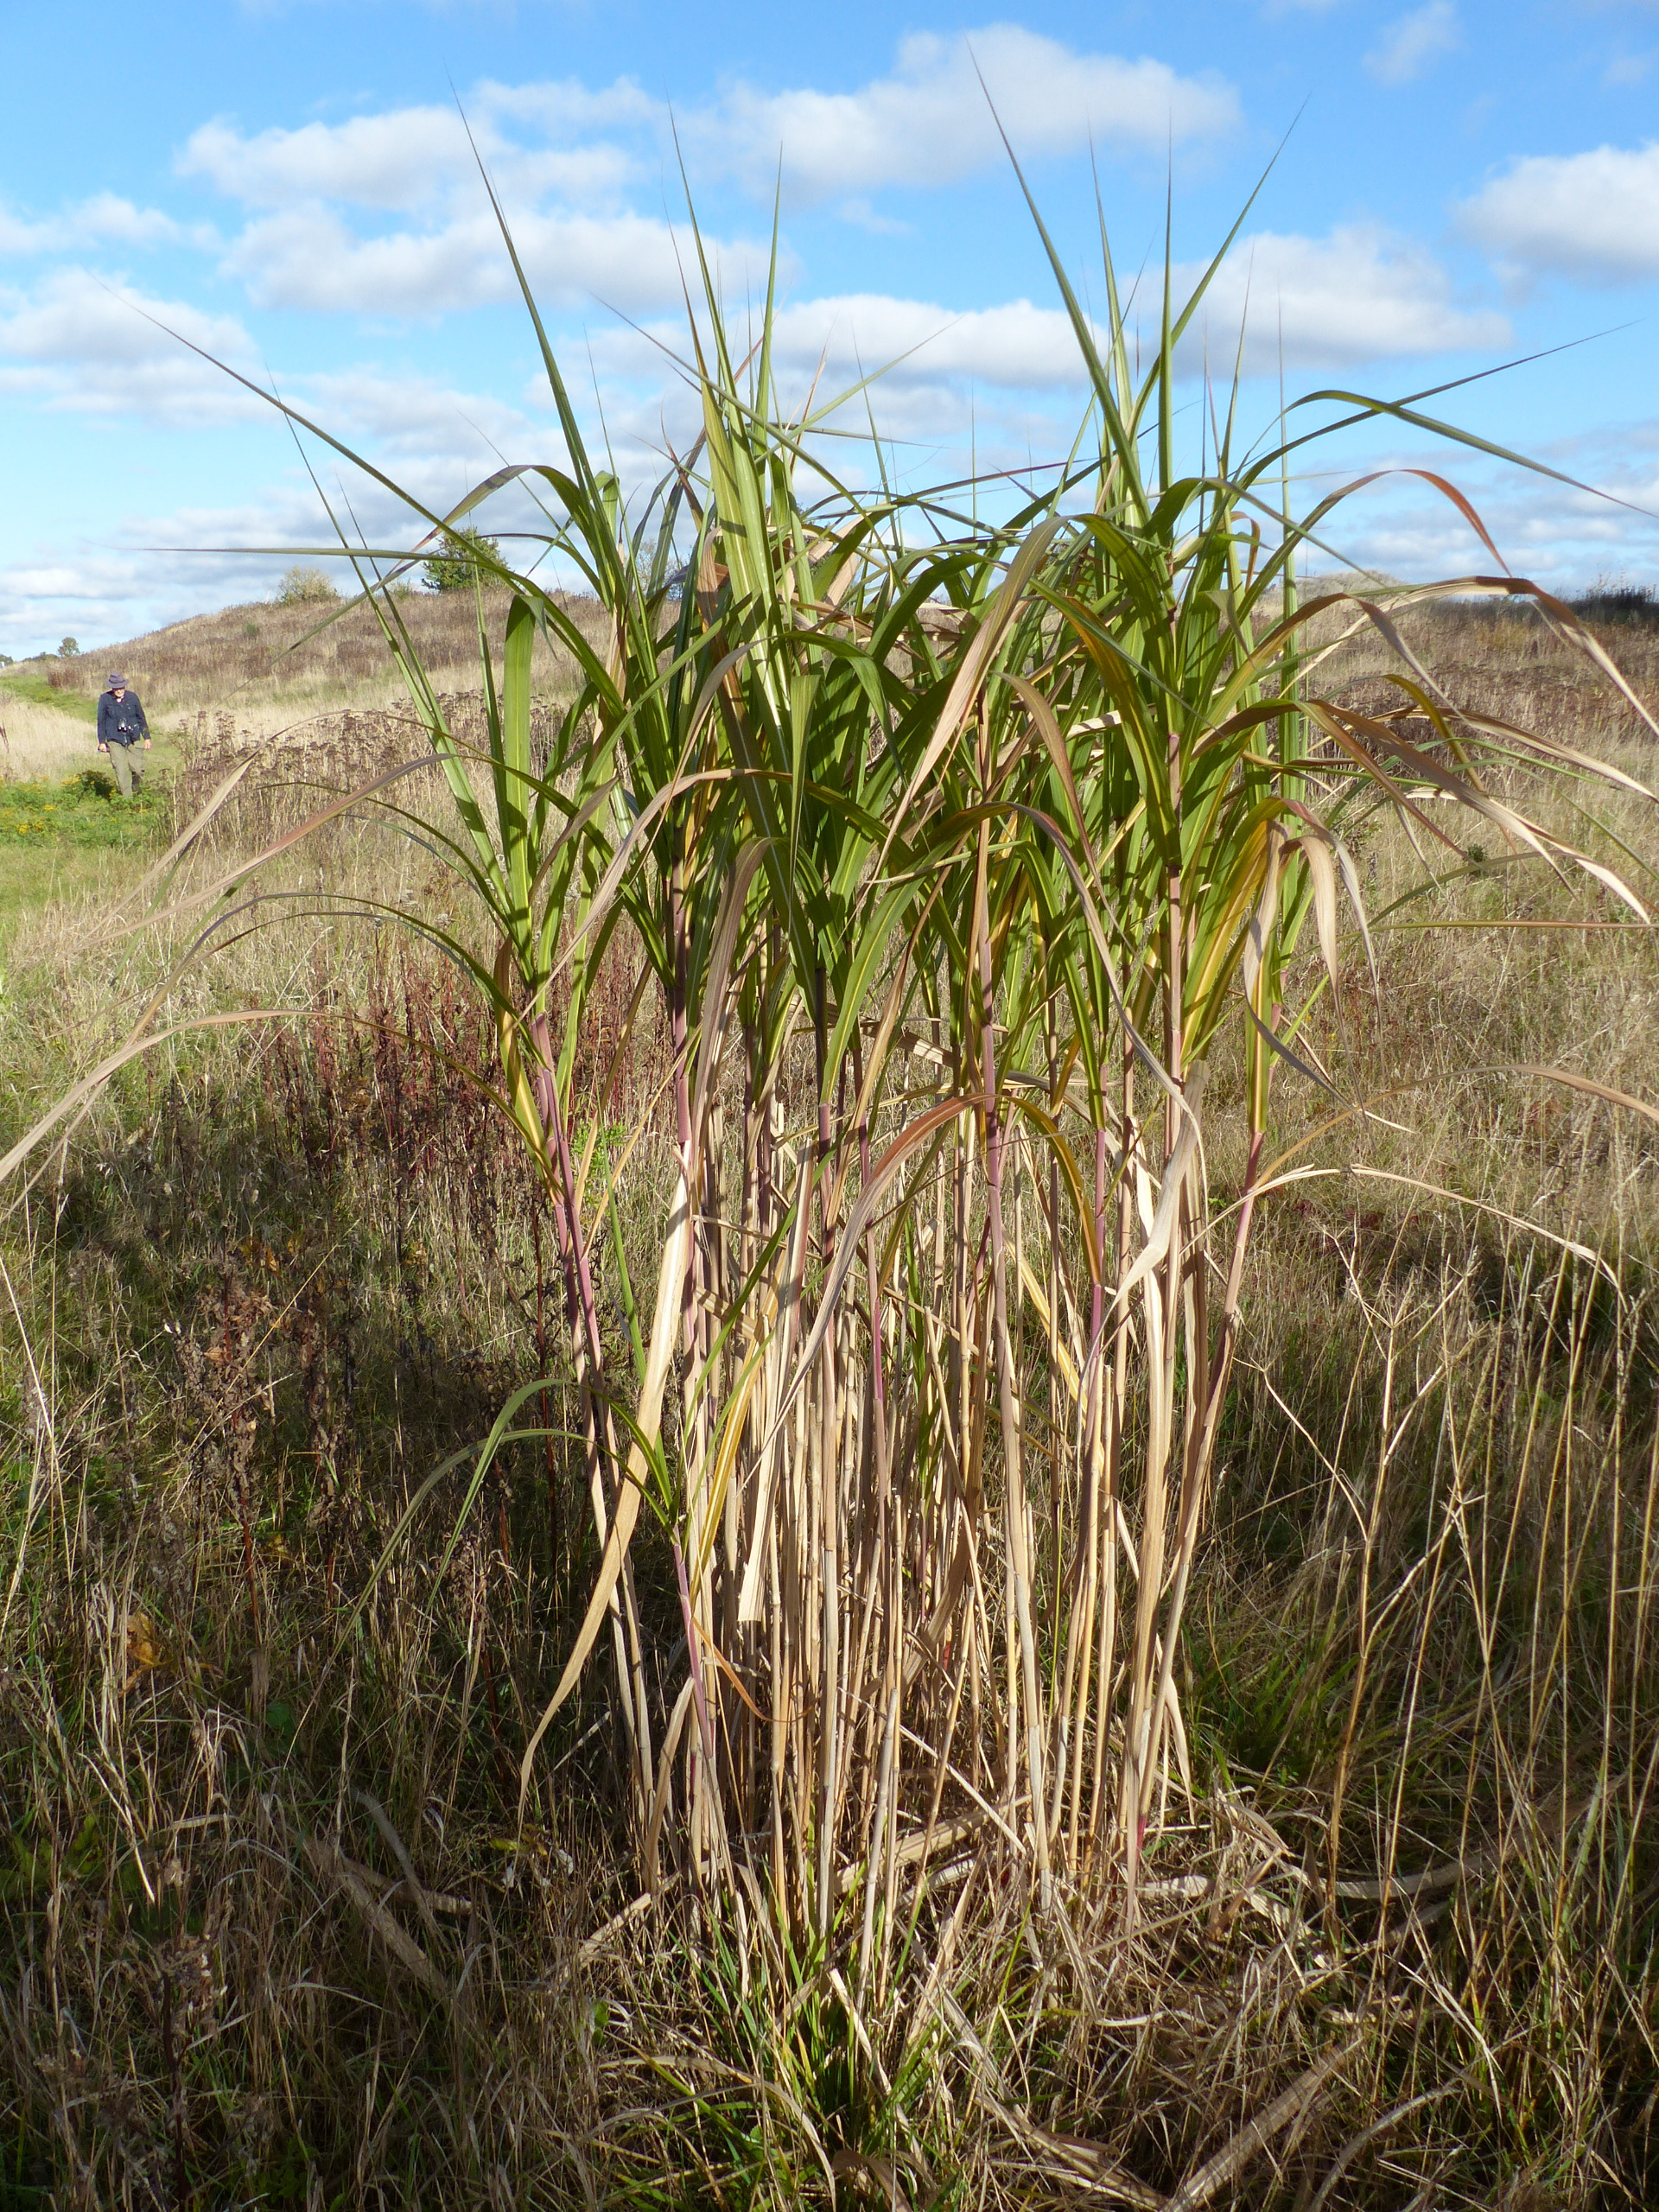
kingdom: Plantae
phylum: Tracheophyta
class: Liliopsida
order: Poales
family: Poaceae
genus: Miscanthus
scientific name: Miscanthus
